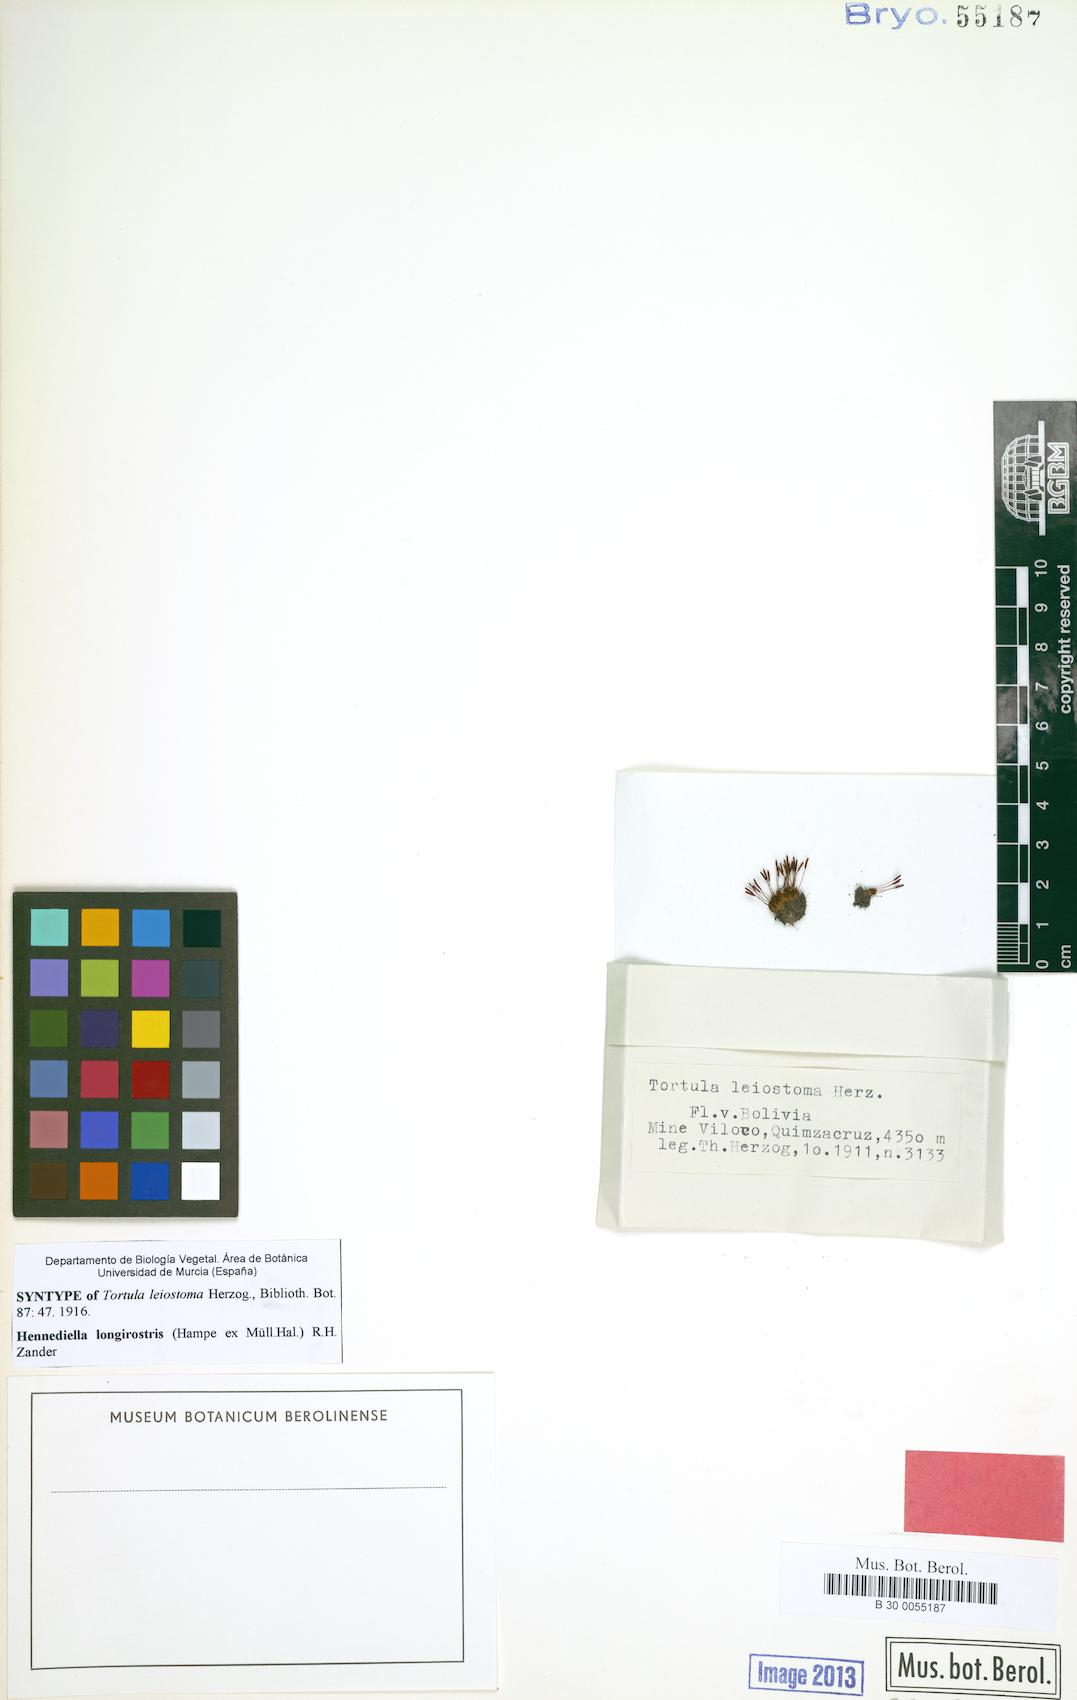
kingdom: Plantae
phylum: Bryophyta
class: Bryopsida
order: Pottiales
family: Pottiaceae
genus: Hennediella
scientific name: Hennediella longirostris
